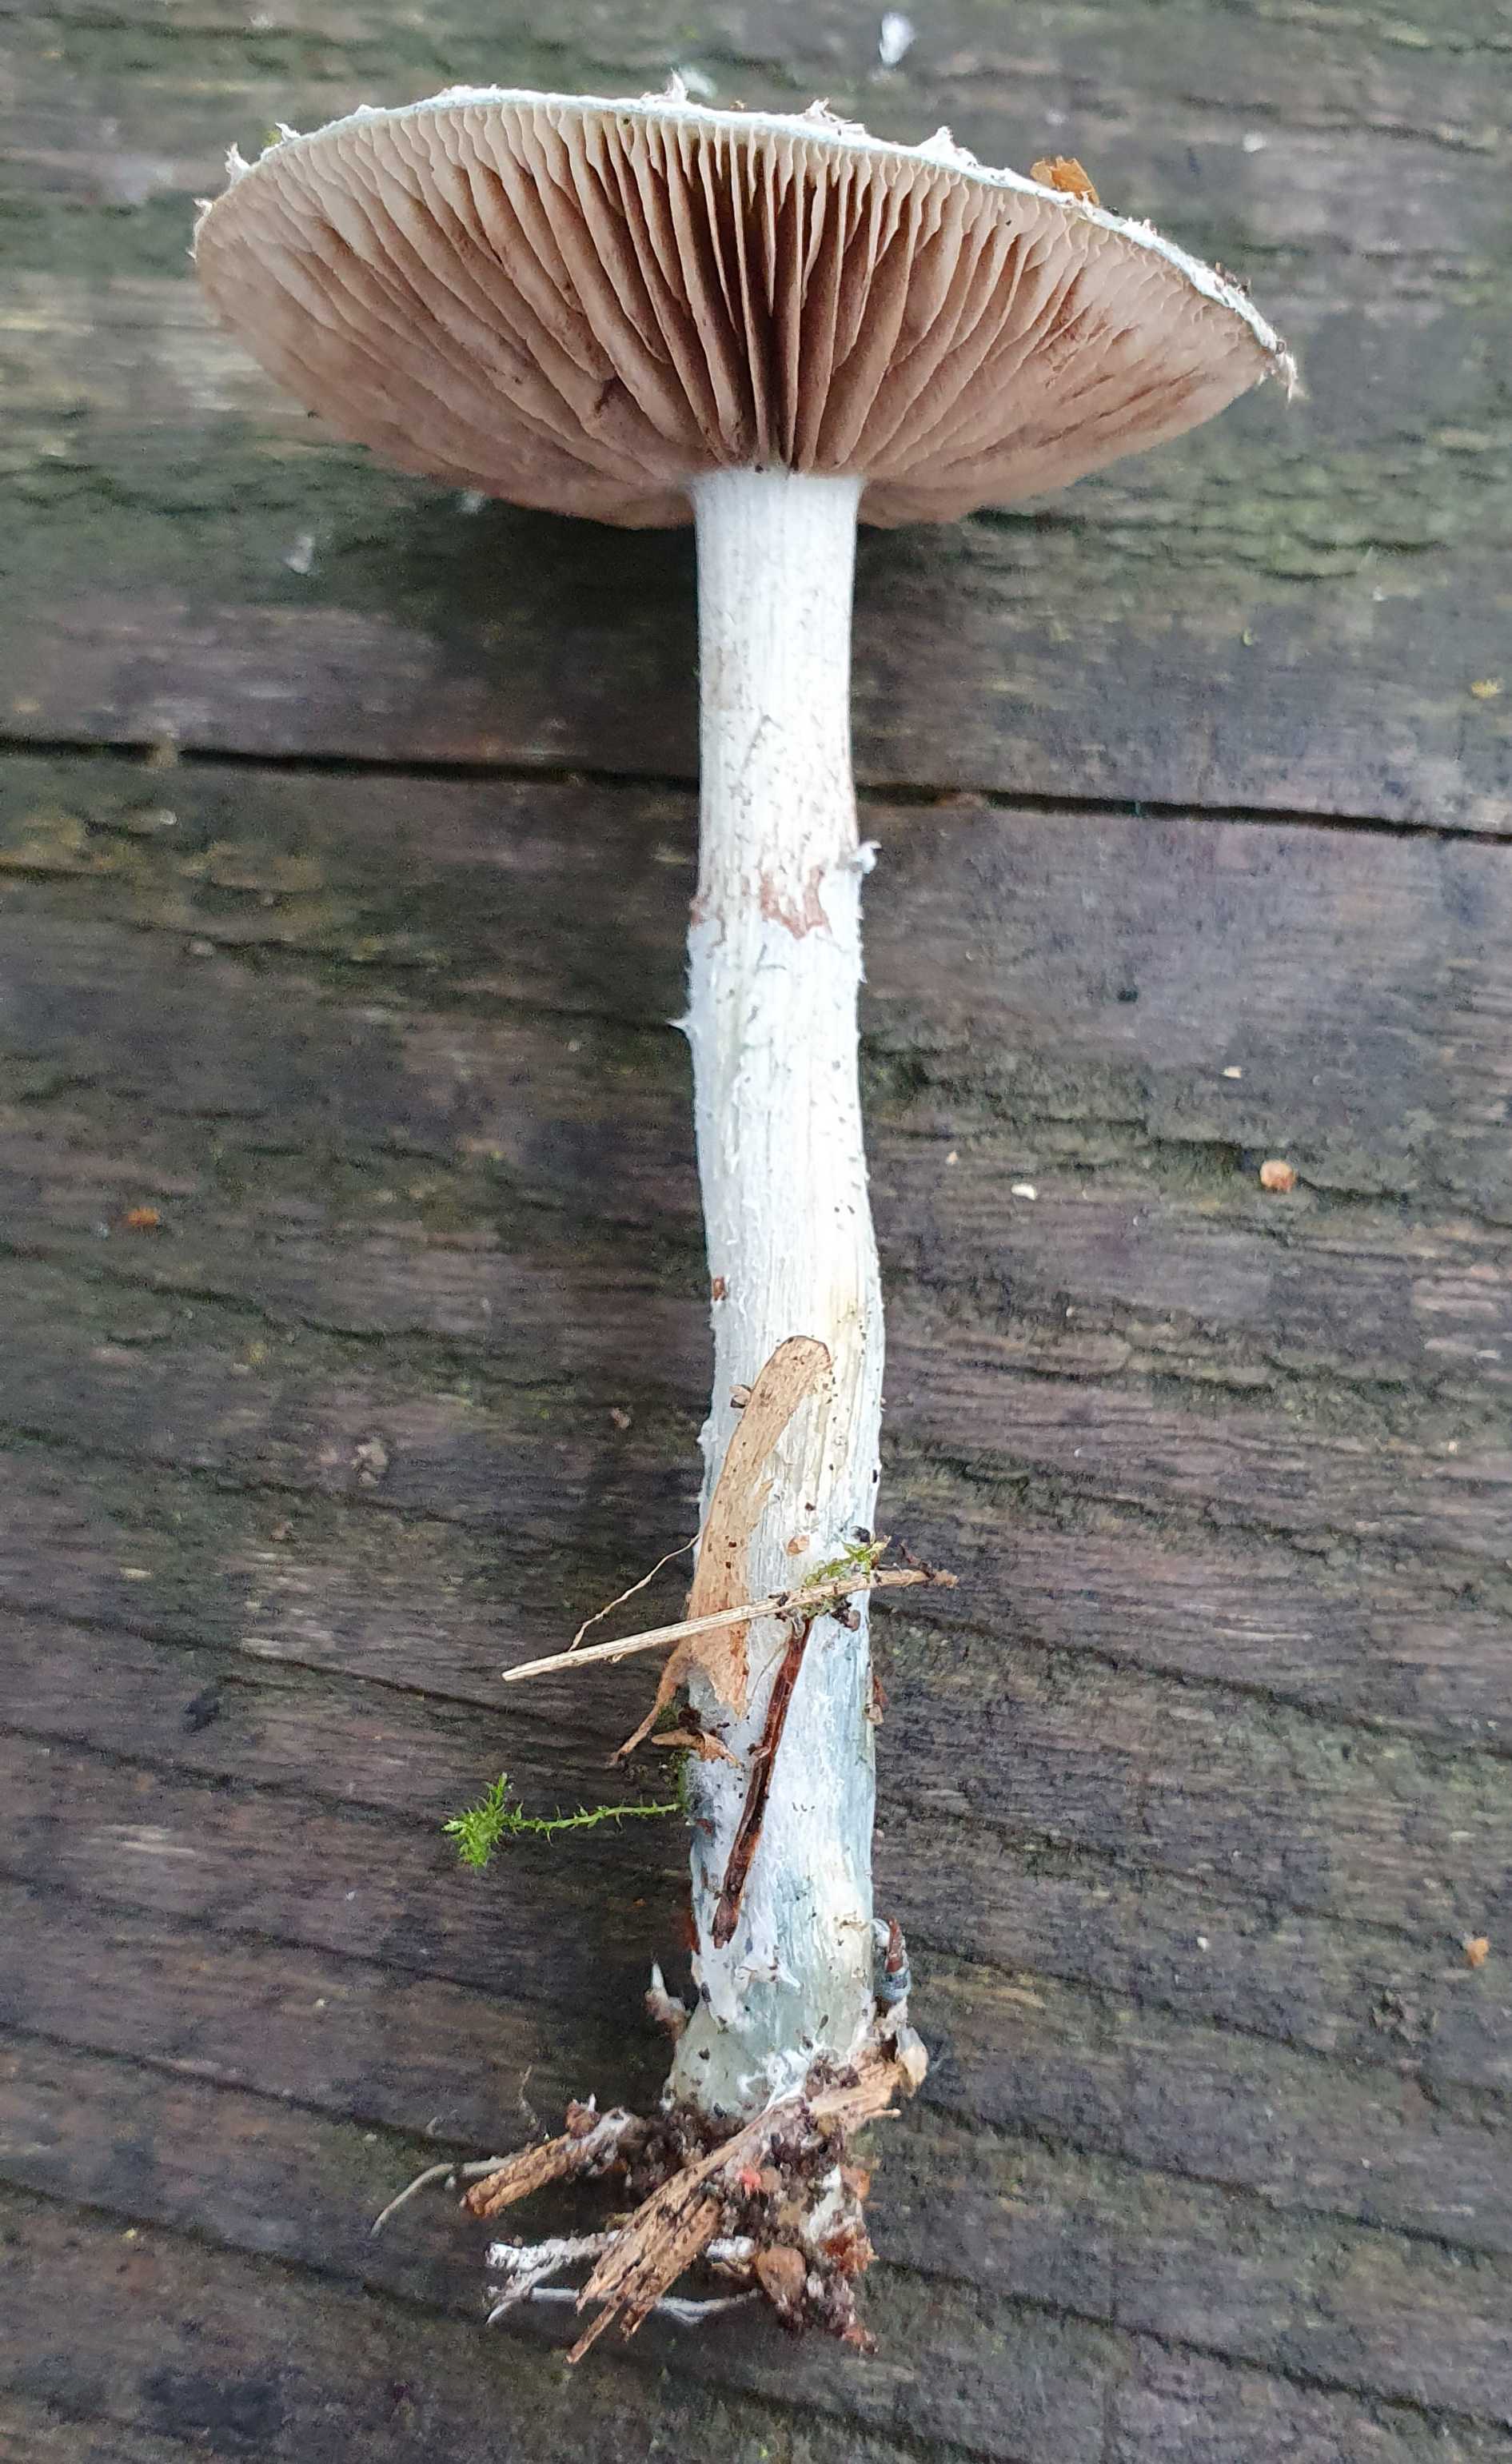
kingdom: Fungi
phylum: Basidiomycota
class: Agaricomycetes
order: Agaricales
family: Strophariaceae
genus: Stropharia
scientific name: Stropharia cyanea
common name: blågrøn bredblad
